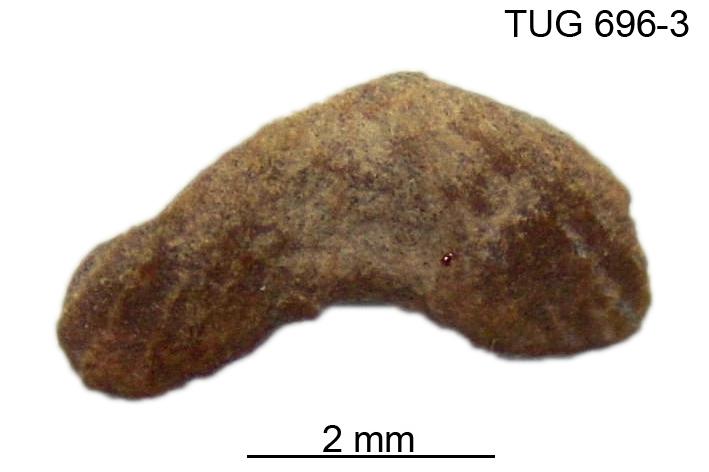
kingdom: Animalia
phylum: Brachiopoda
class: Rhynchonellata
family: Dicoelosiidae
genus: Dicoelosia
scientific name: Dicoelosia transversa
